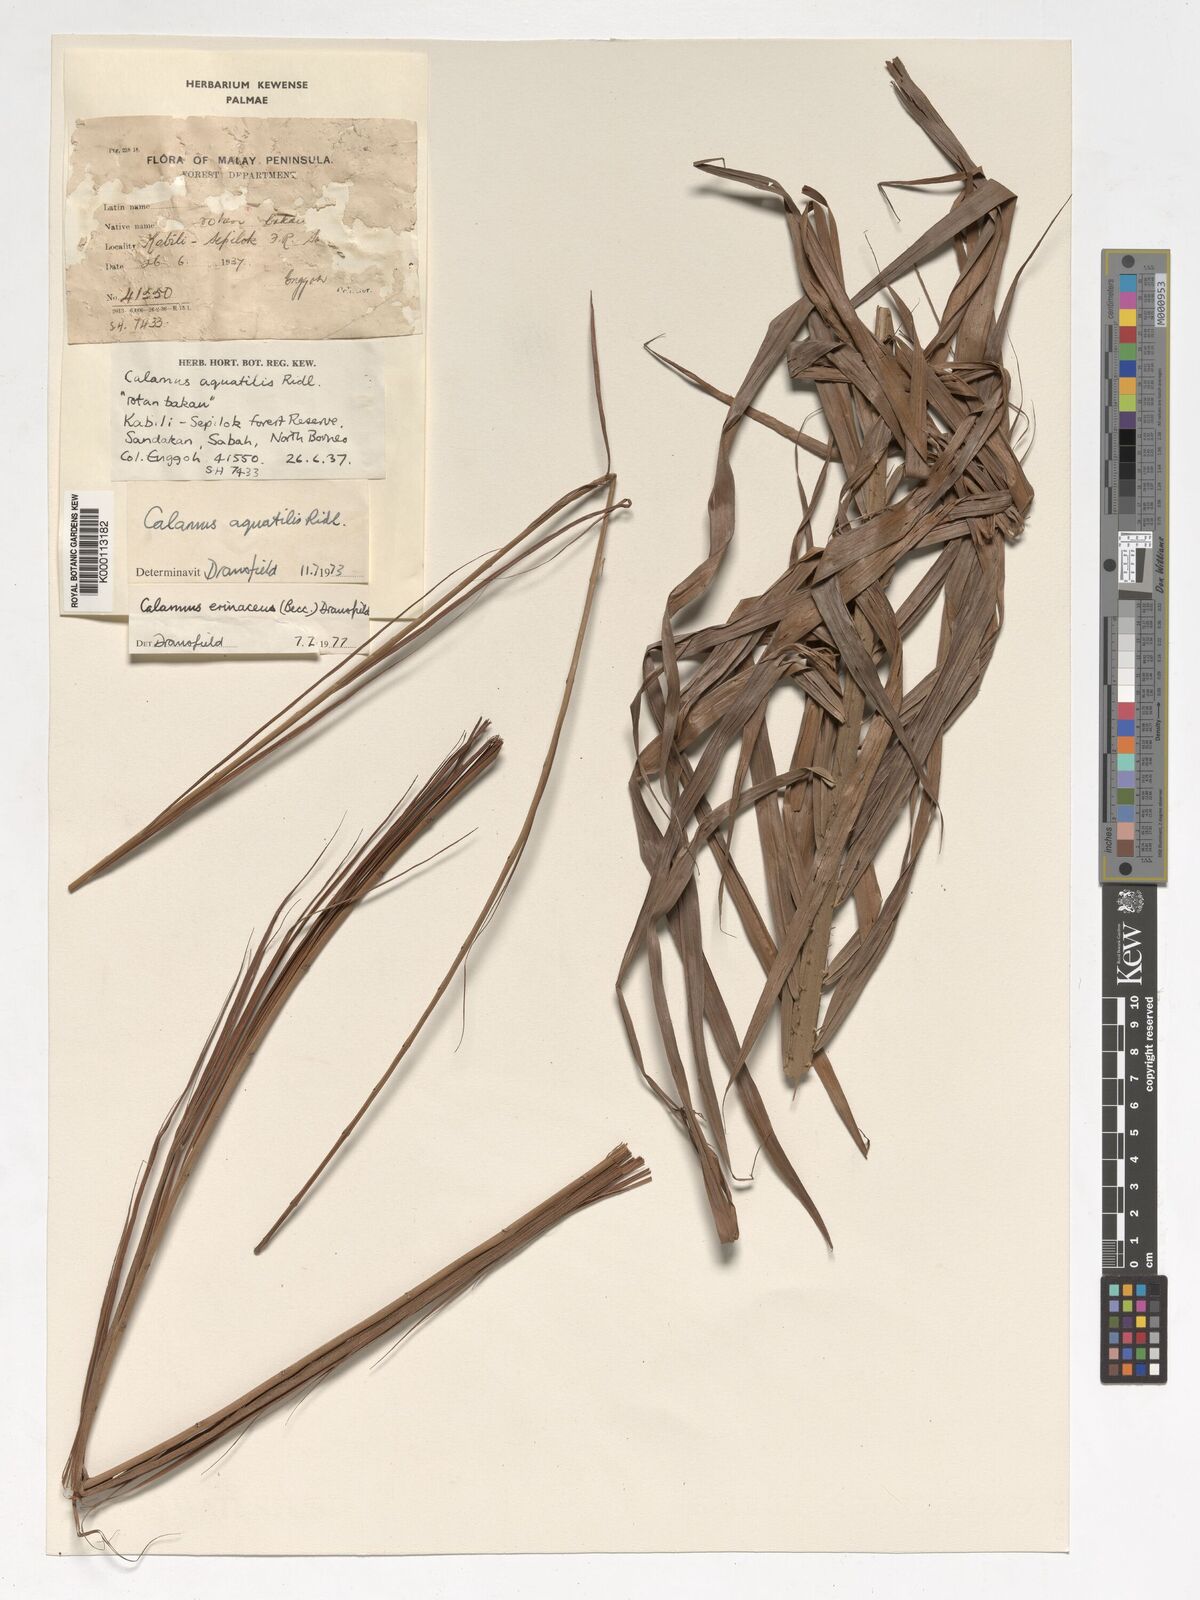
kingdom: Plantae
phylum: Tracheophyta
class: Liliopsida
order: Arecales
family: Arecaceae
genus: Calamus
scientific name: Calamus
